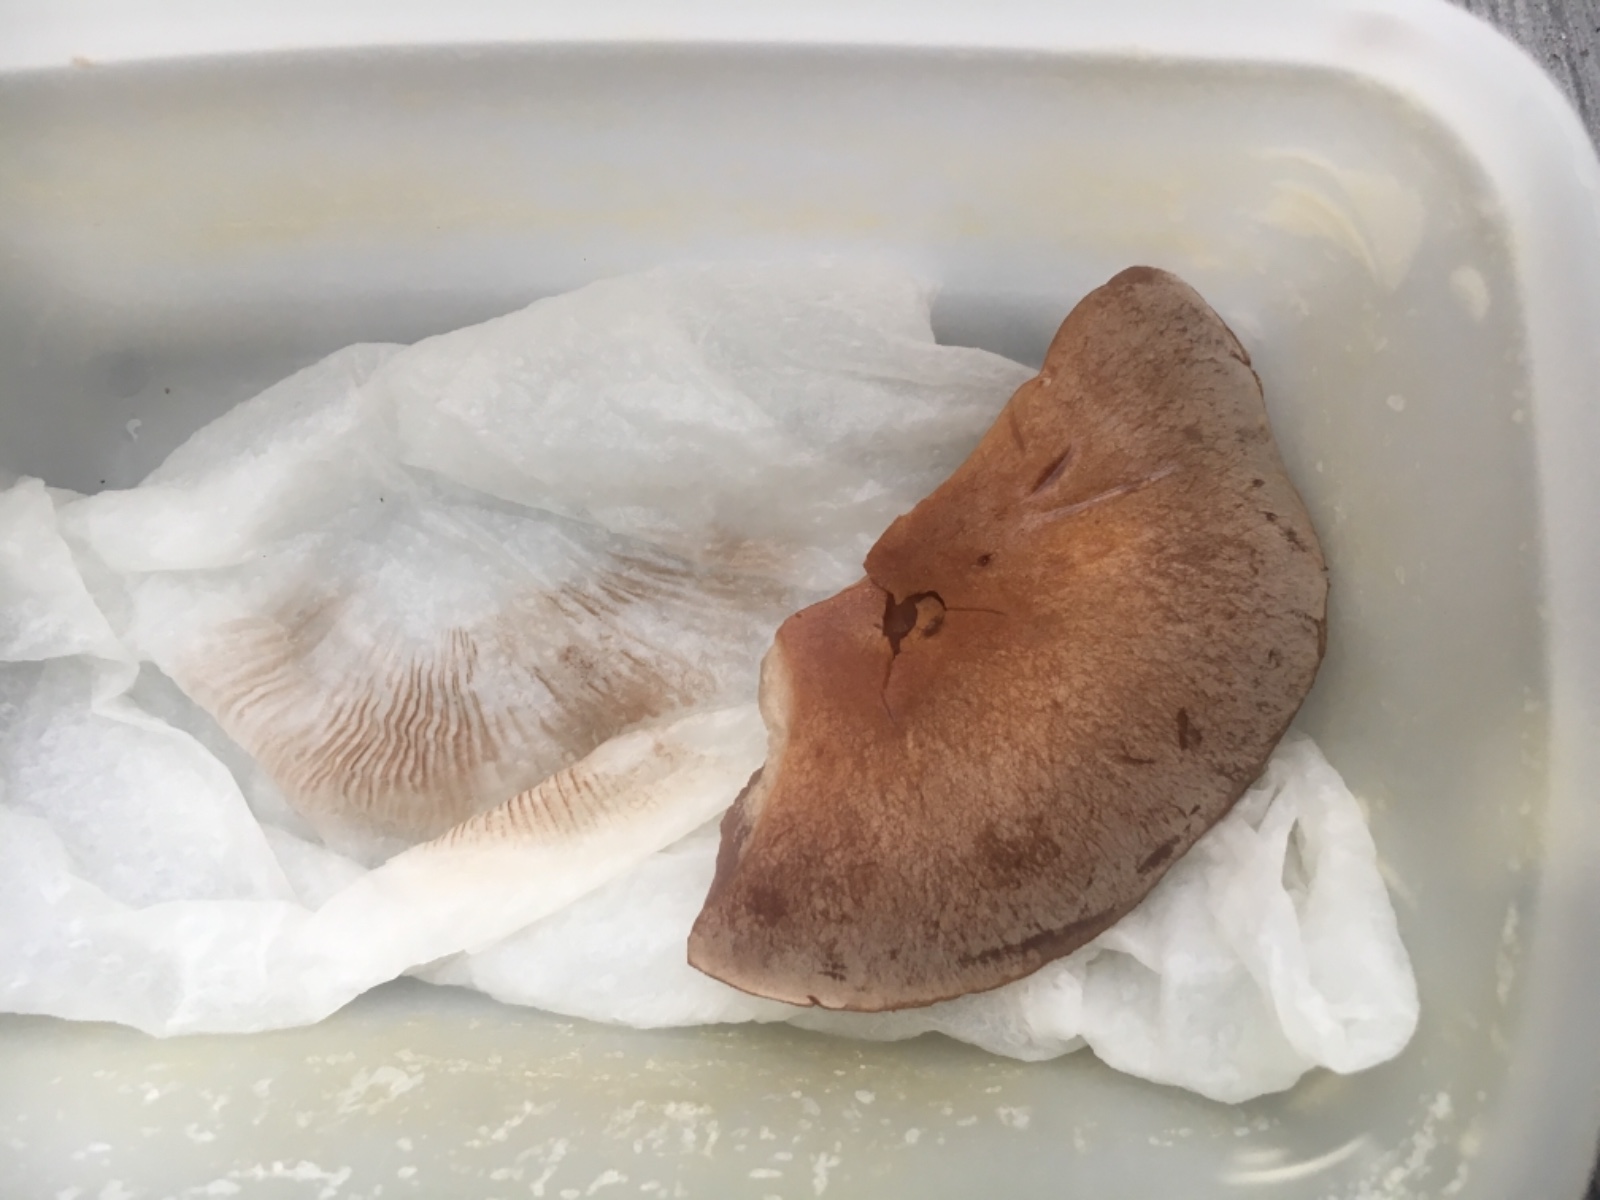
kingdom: Fungi
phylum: Basidiomycota
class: Agaricomycetes
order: Agaricales
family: Cortinariaceae
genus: Cortinarius
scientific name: Cortinarius
